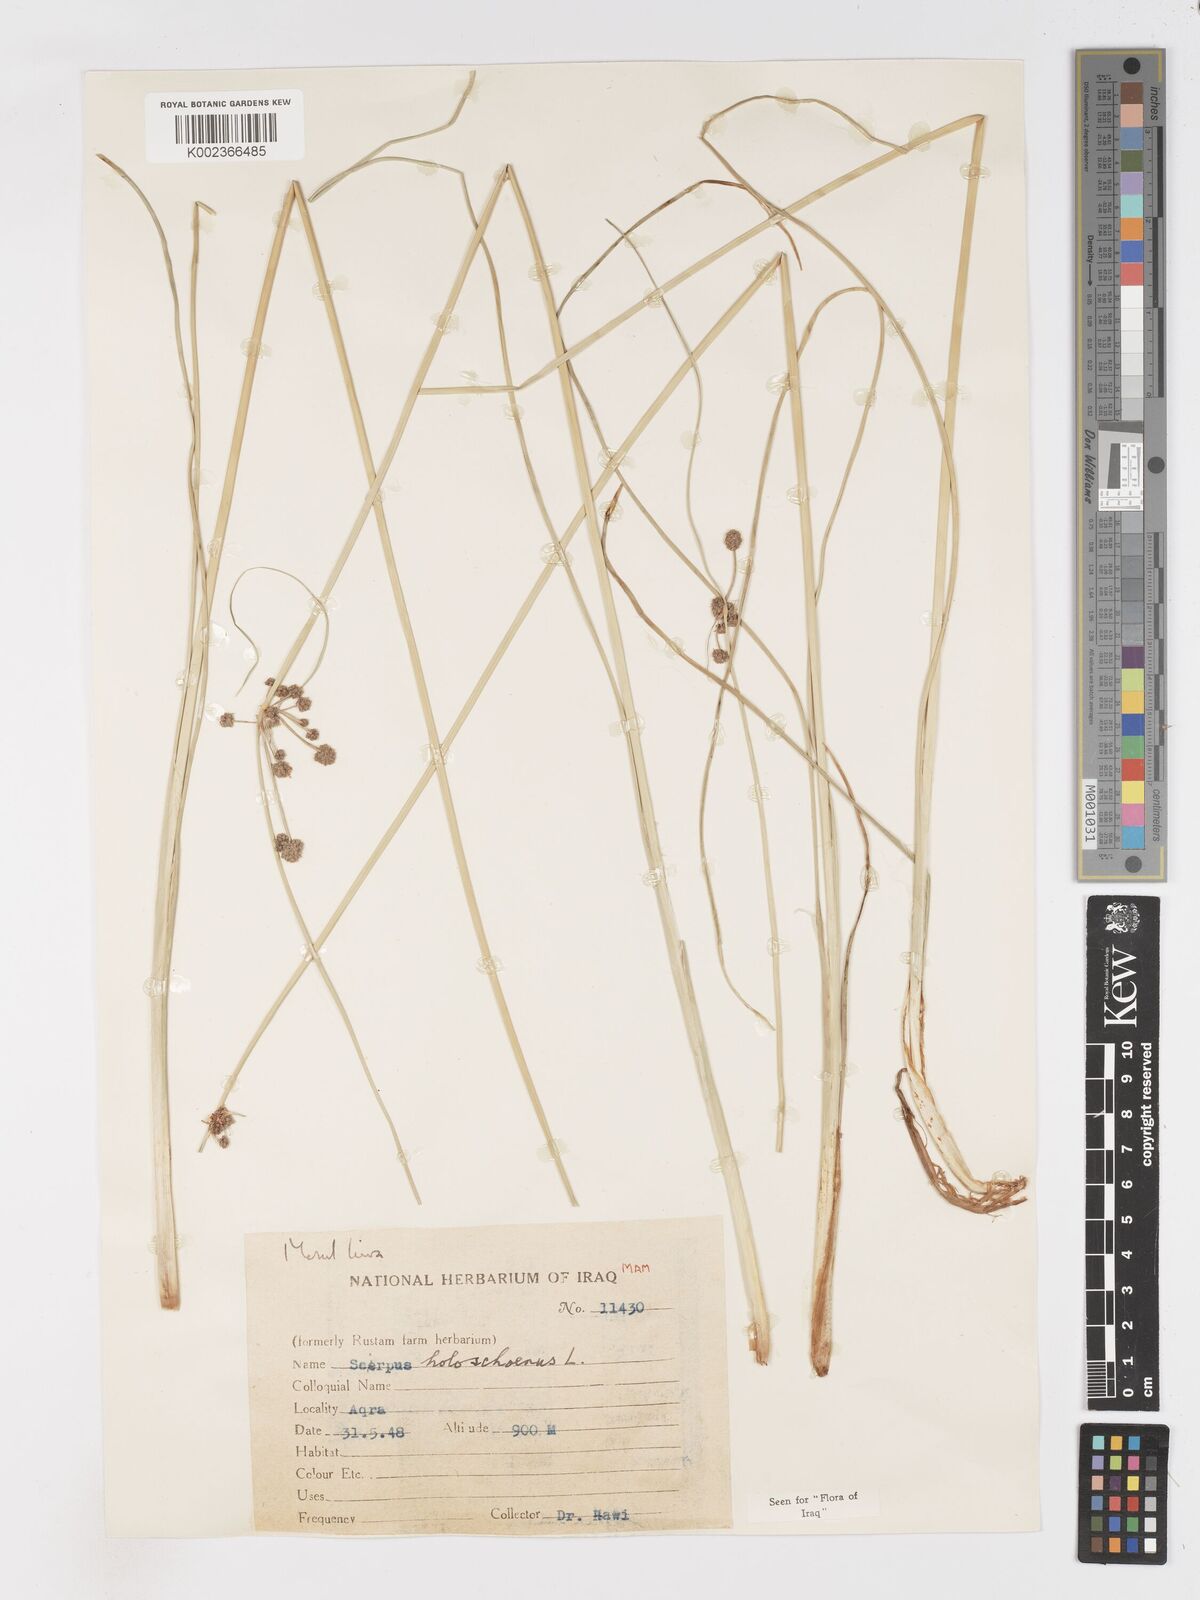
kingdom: Plantae
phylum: Tracheophyta
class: Liliopsida
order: Poales
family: Cyperaceae
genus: Scirpoides
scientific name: Scirpoides holoschoenus
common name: Round-headed club-rush
